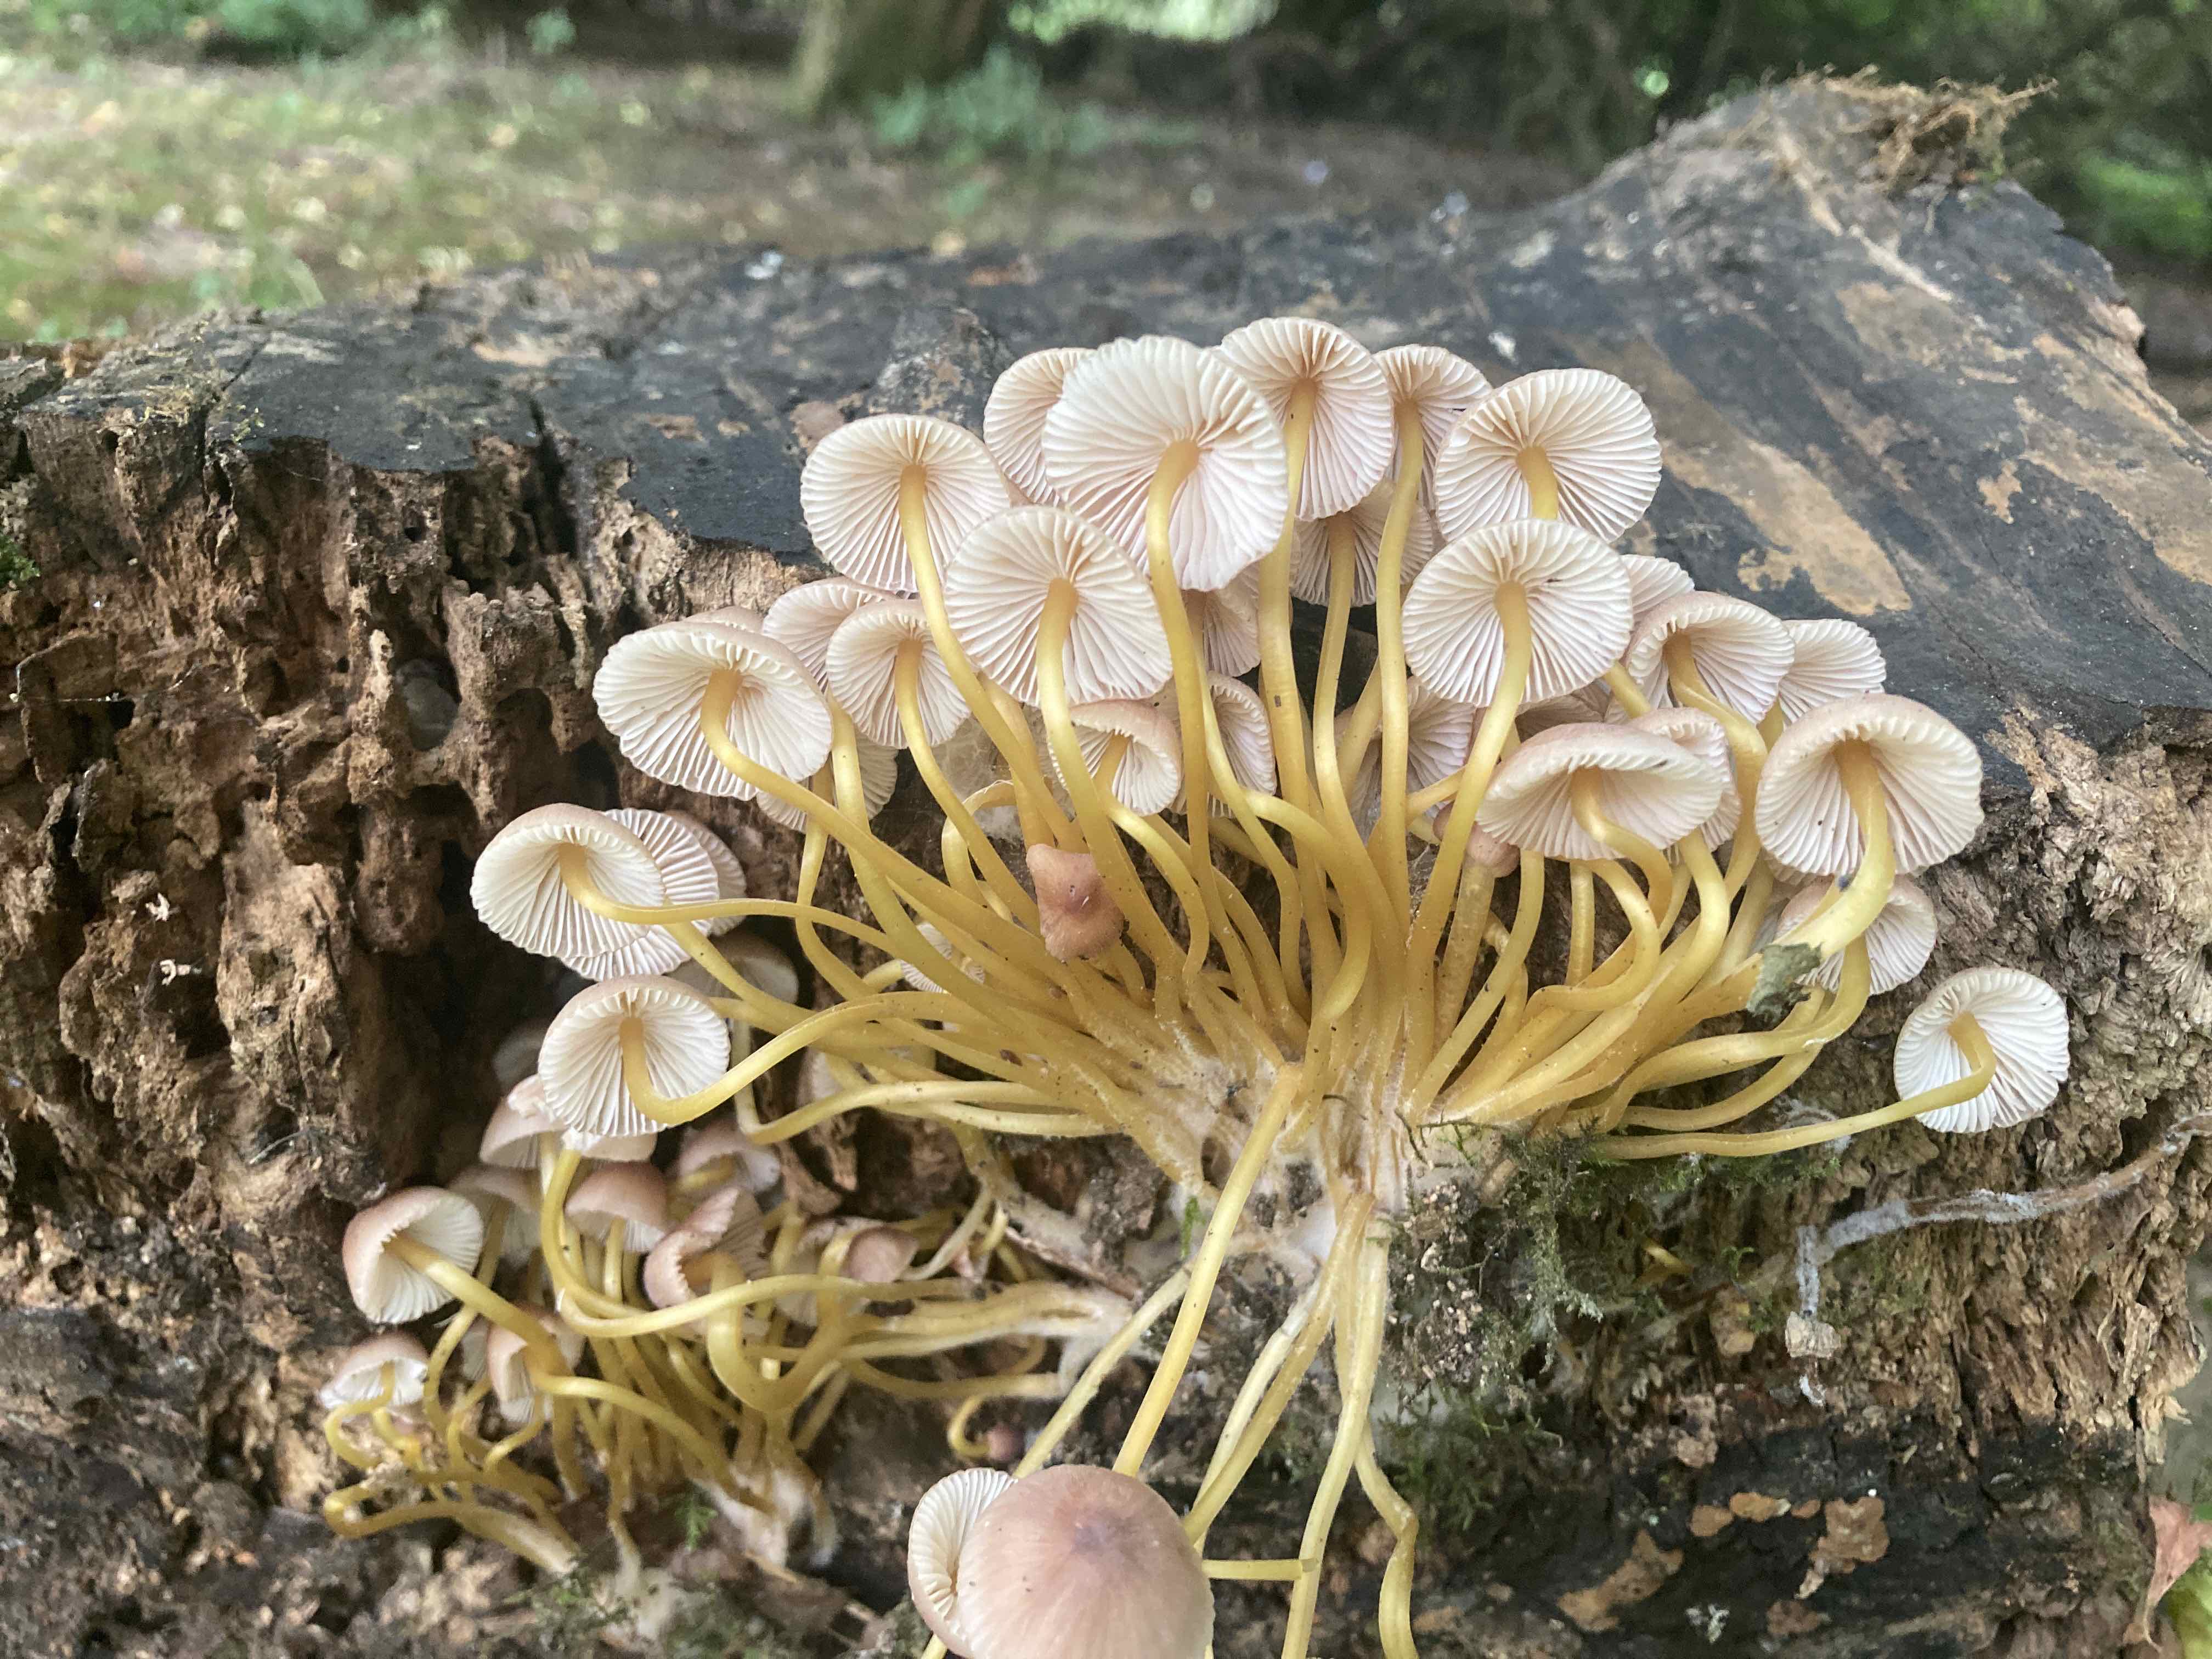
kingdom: Fungi
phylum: Basidiomycota
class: Agaricomycetes
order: Agaricales
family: Mycenaceae
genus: Mycena
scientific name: Mycena renati
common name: smuk huesvamp
